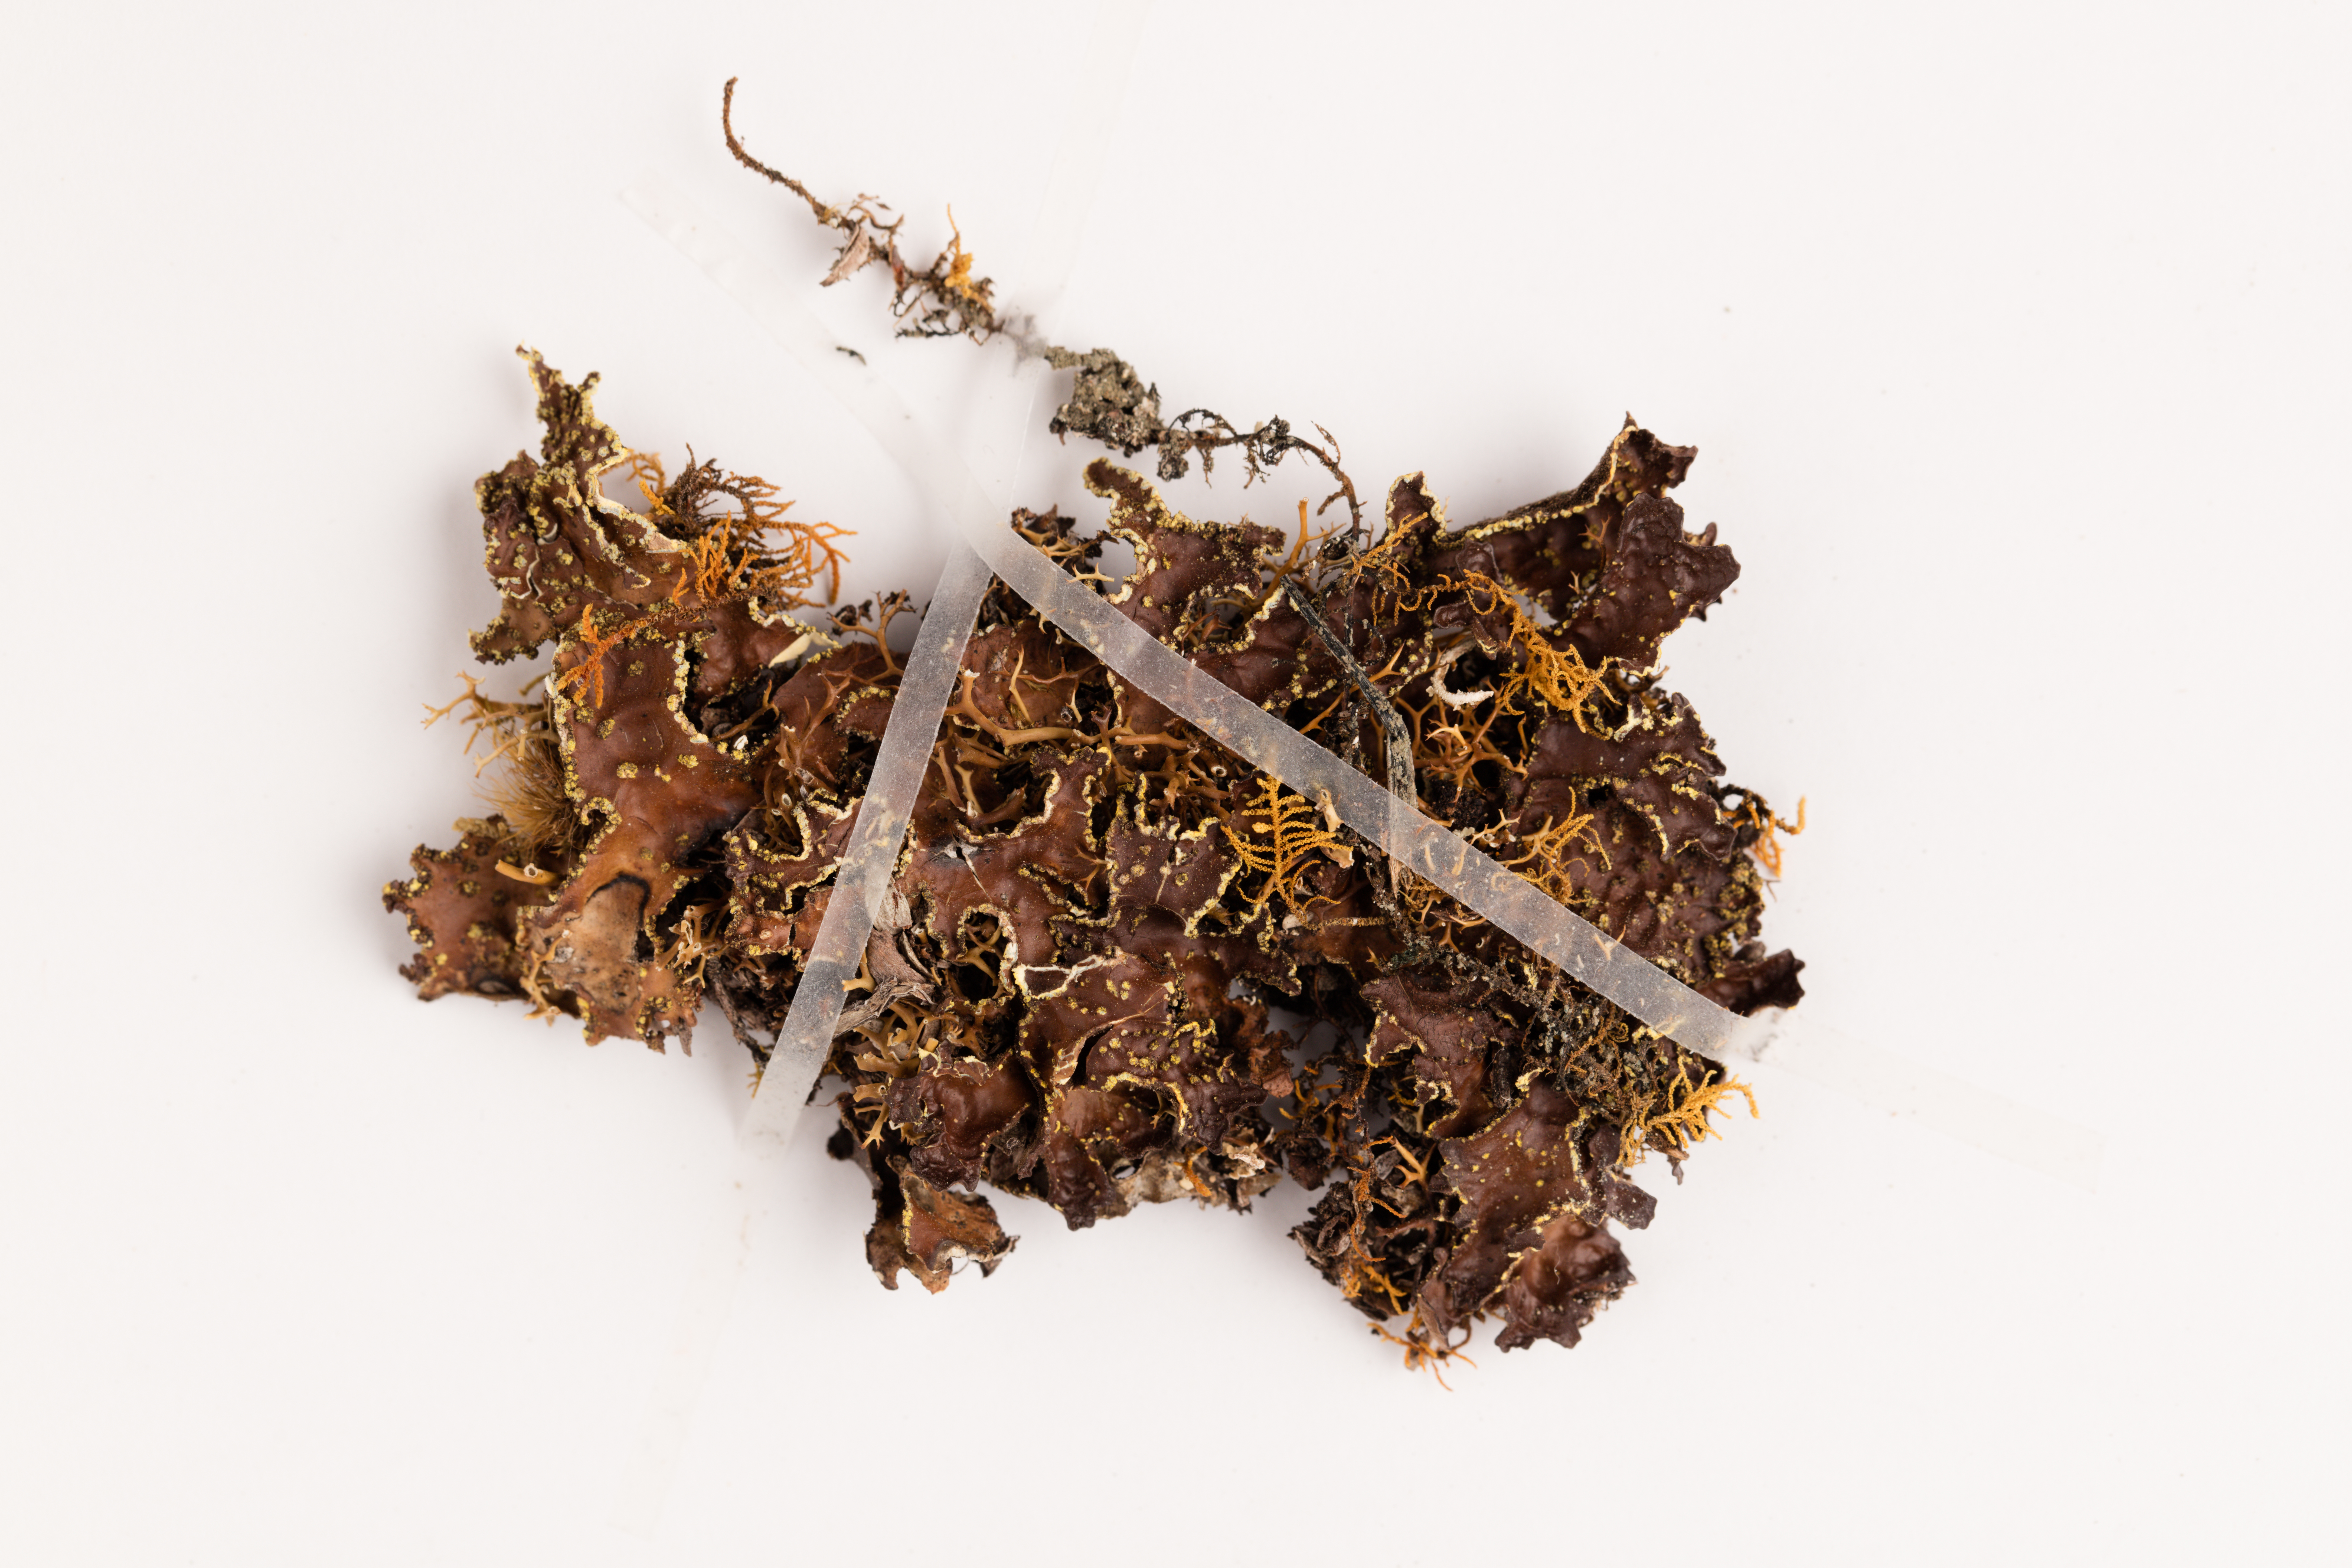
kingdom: Fungi
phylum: Ascomycota
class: Lecanoromycetes
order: Peltigerales
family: Lobariaceae
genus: Pseudocyphellaria
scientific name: Pseudocyphellaria crocata
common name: Golden specklebelly
